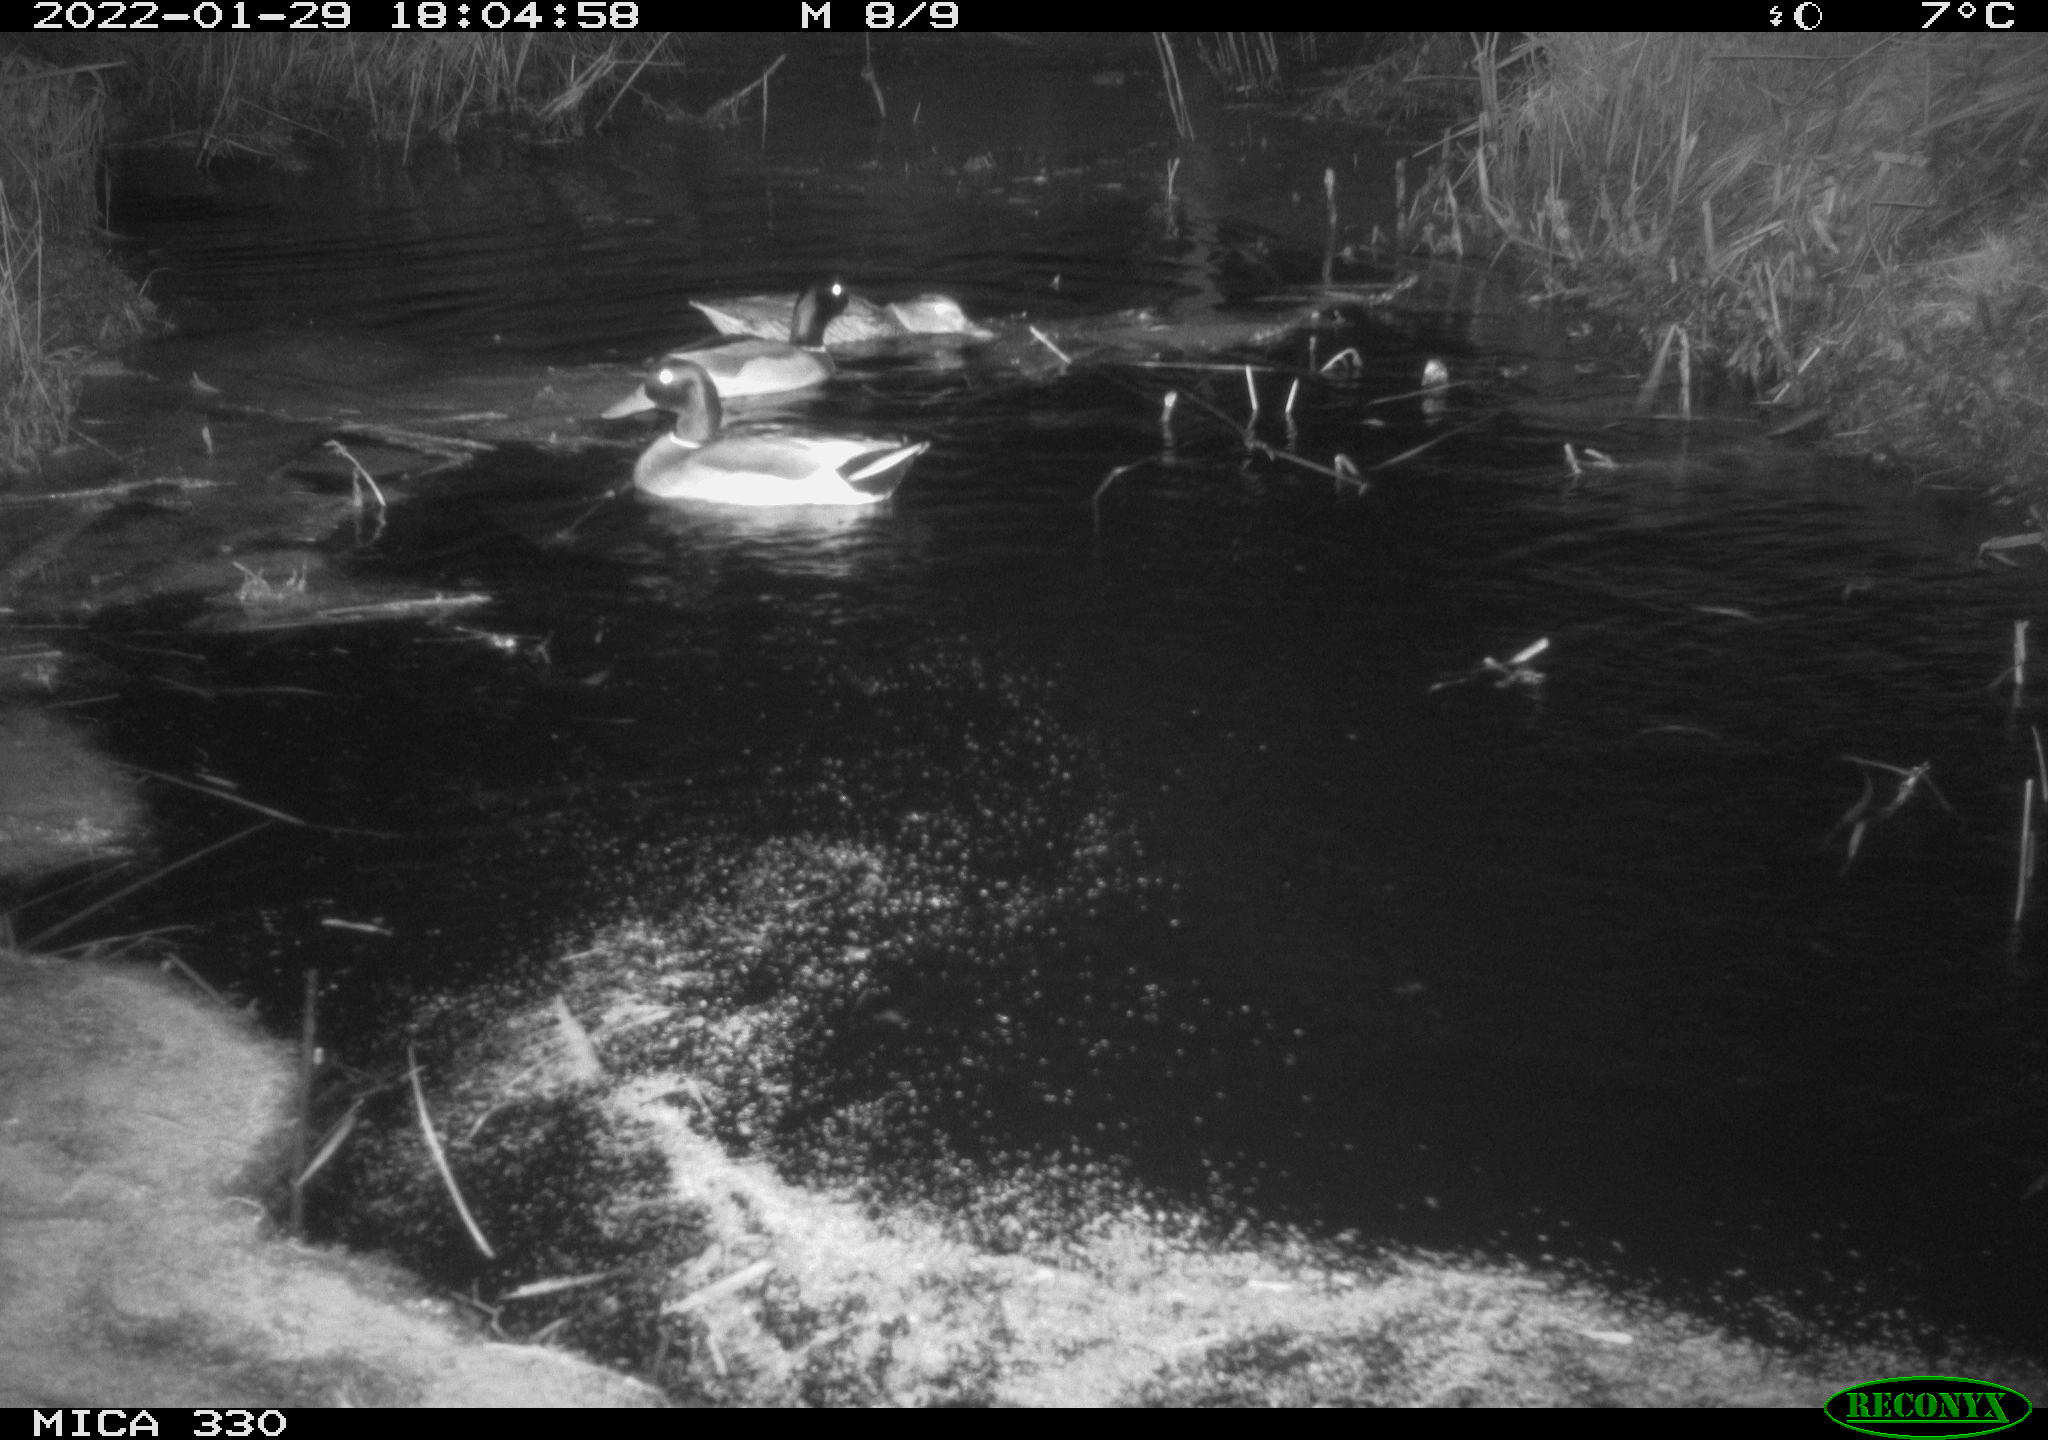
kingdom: Animalia
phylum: Chordata
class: Aves
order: Anseriformes
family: Anatidae
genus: Anas
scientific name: Anas platyrhynchos
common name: Mallard
